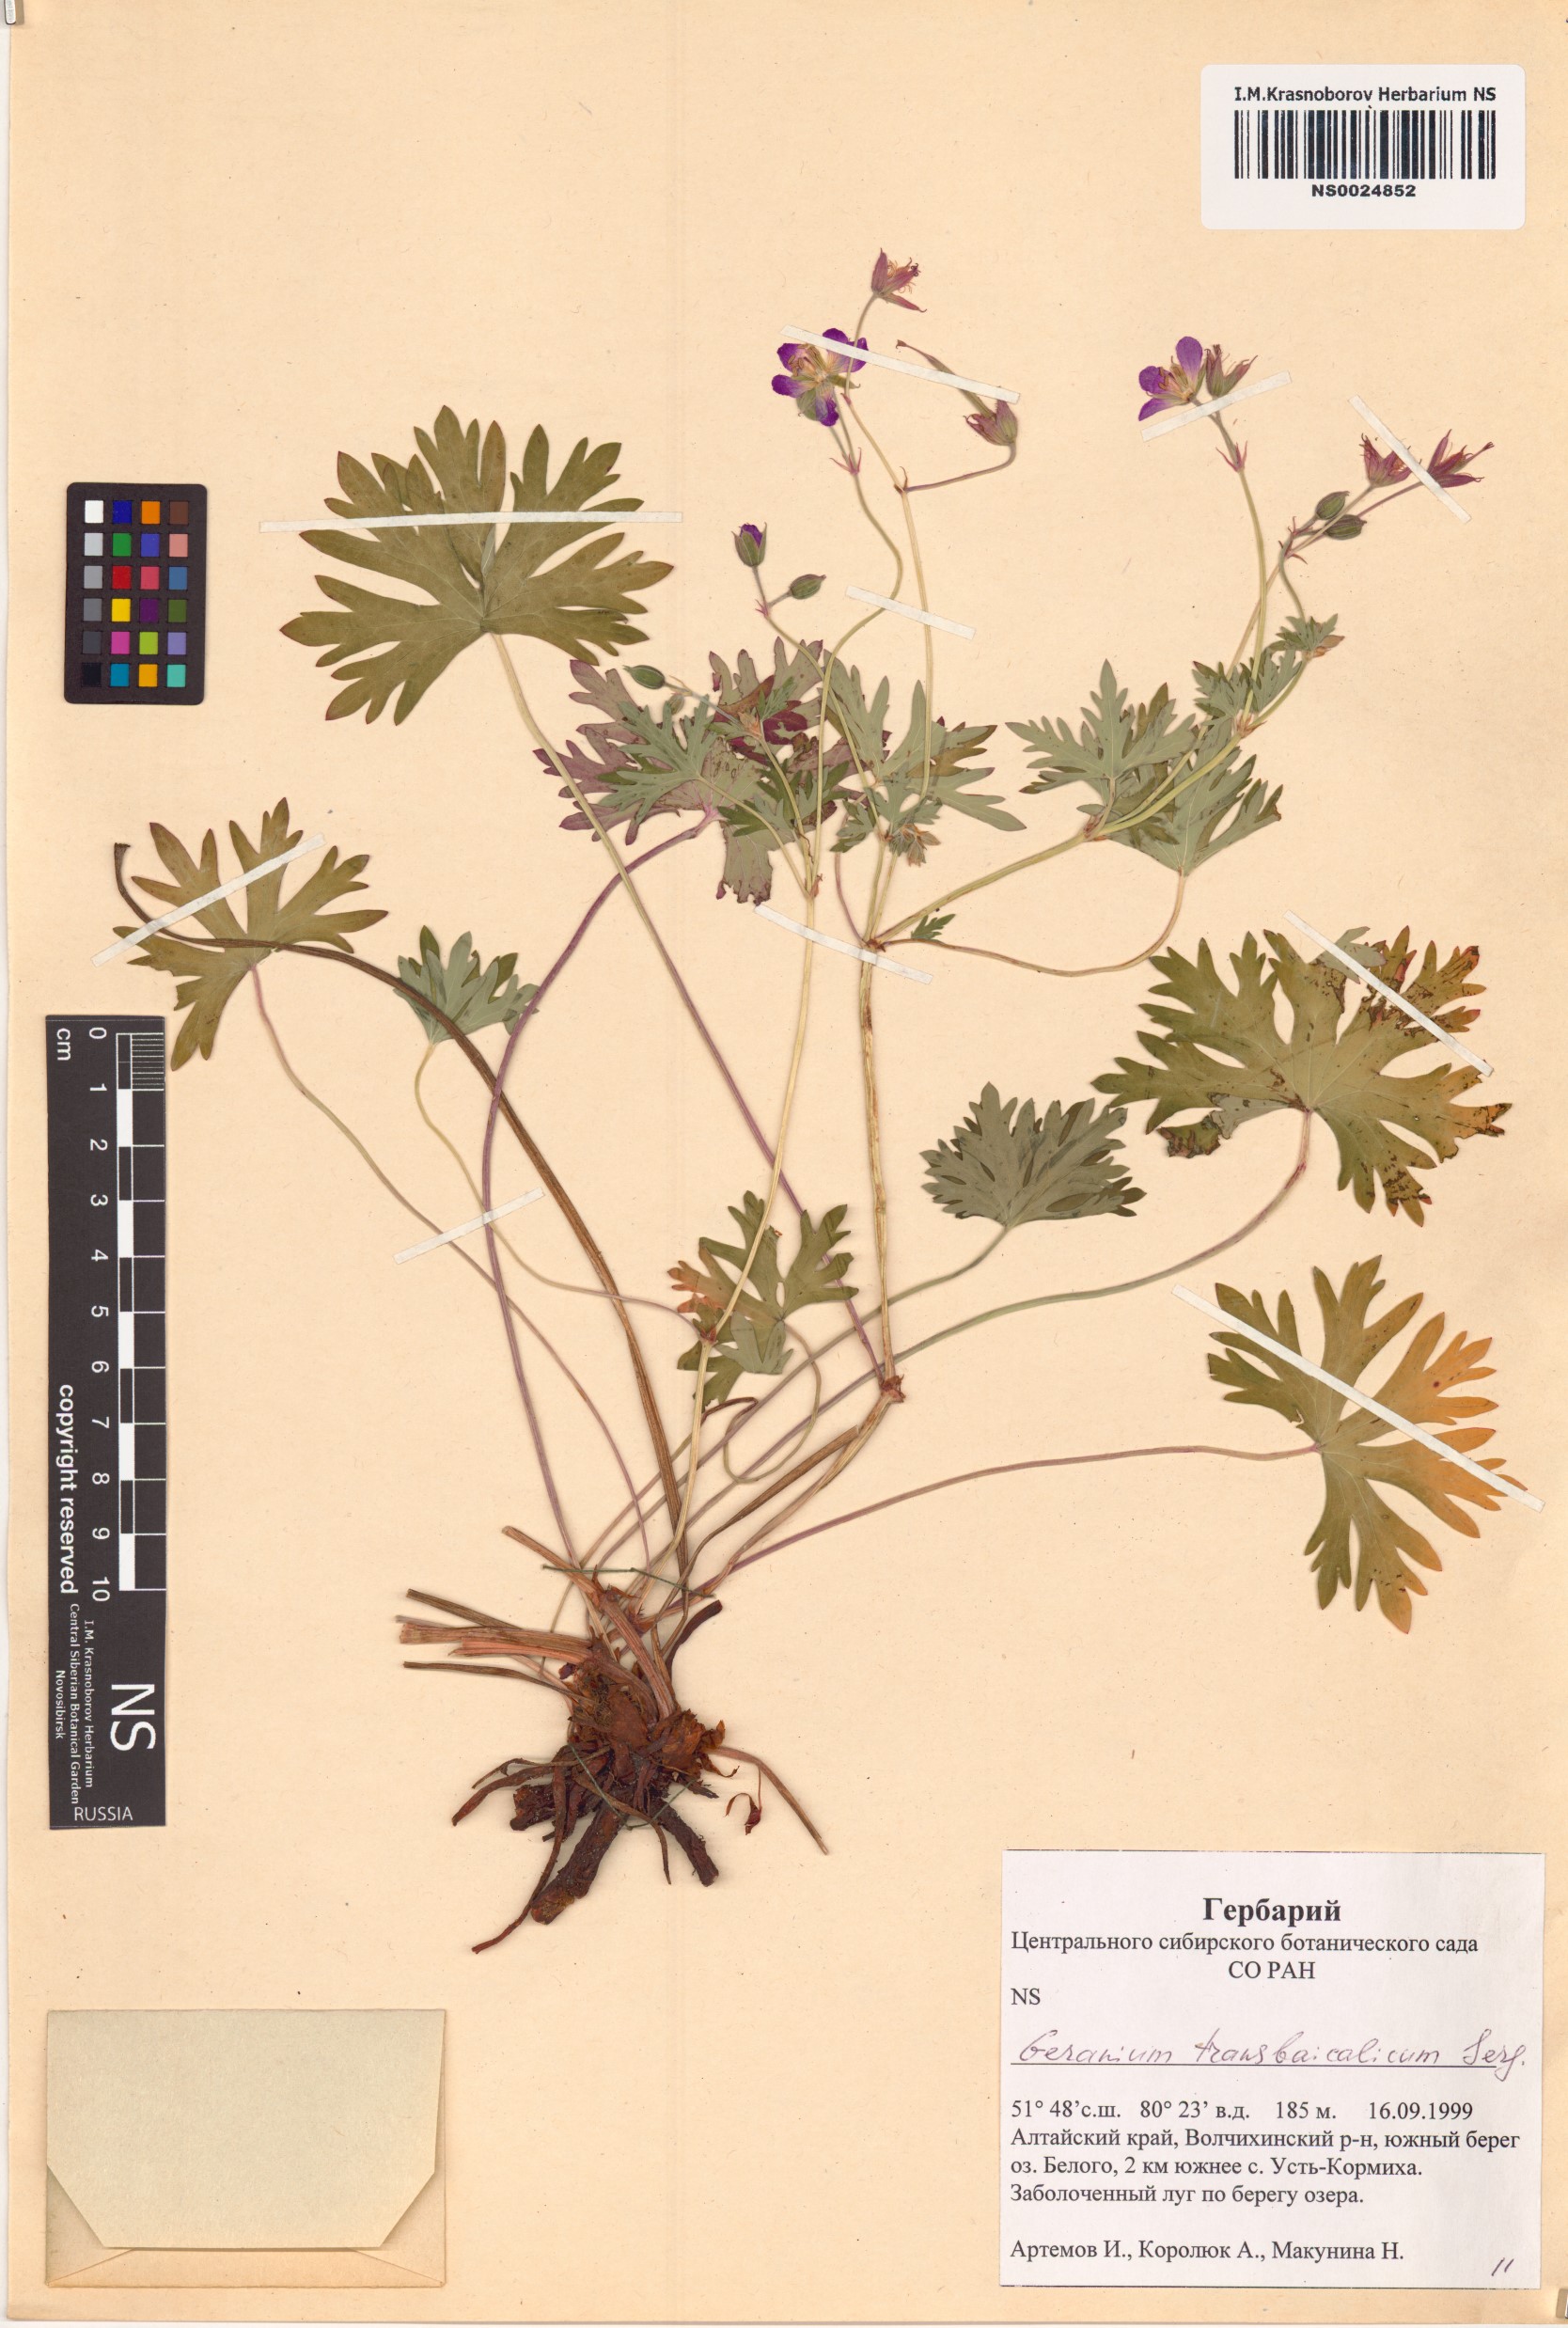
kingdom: Plantae
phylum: Tracheophyta
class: Magnoliopsida
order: Geraniales
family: Geraniaceae
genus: Geranium
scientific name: Geranium pratense
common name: Meadow crane's-bill
